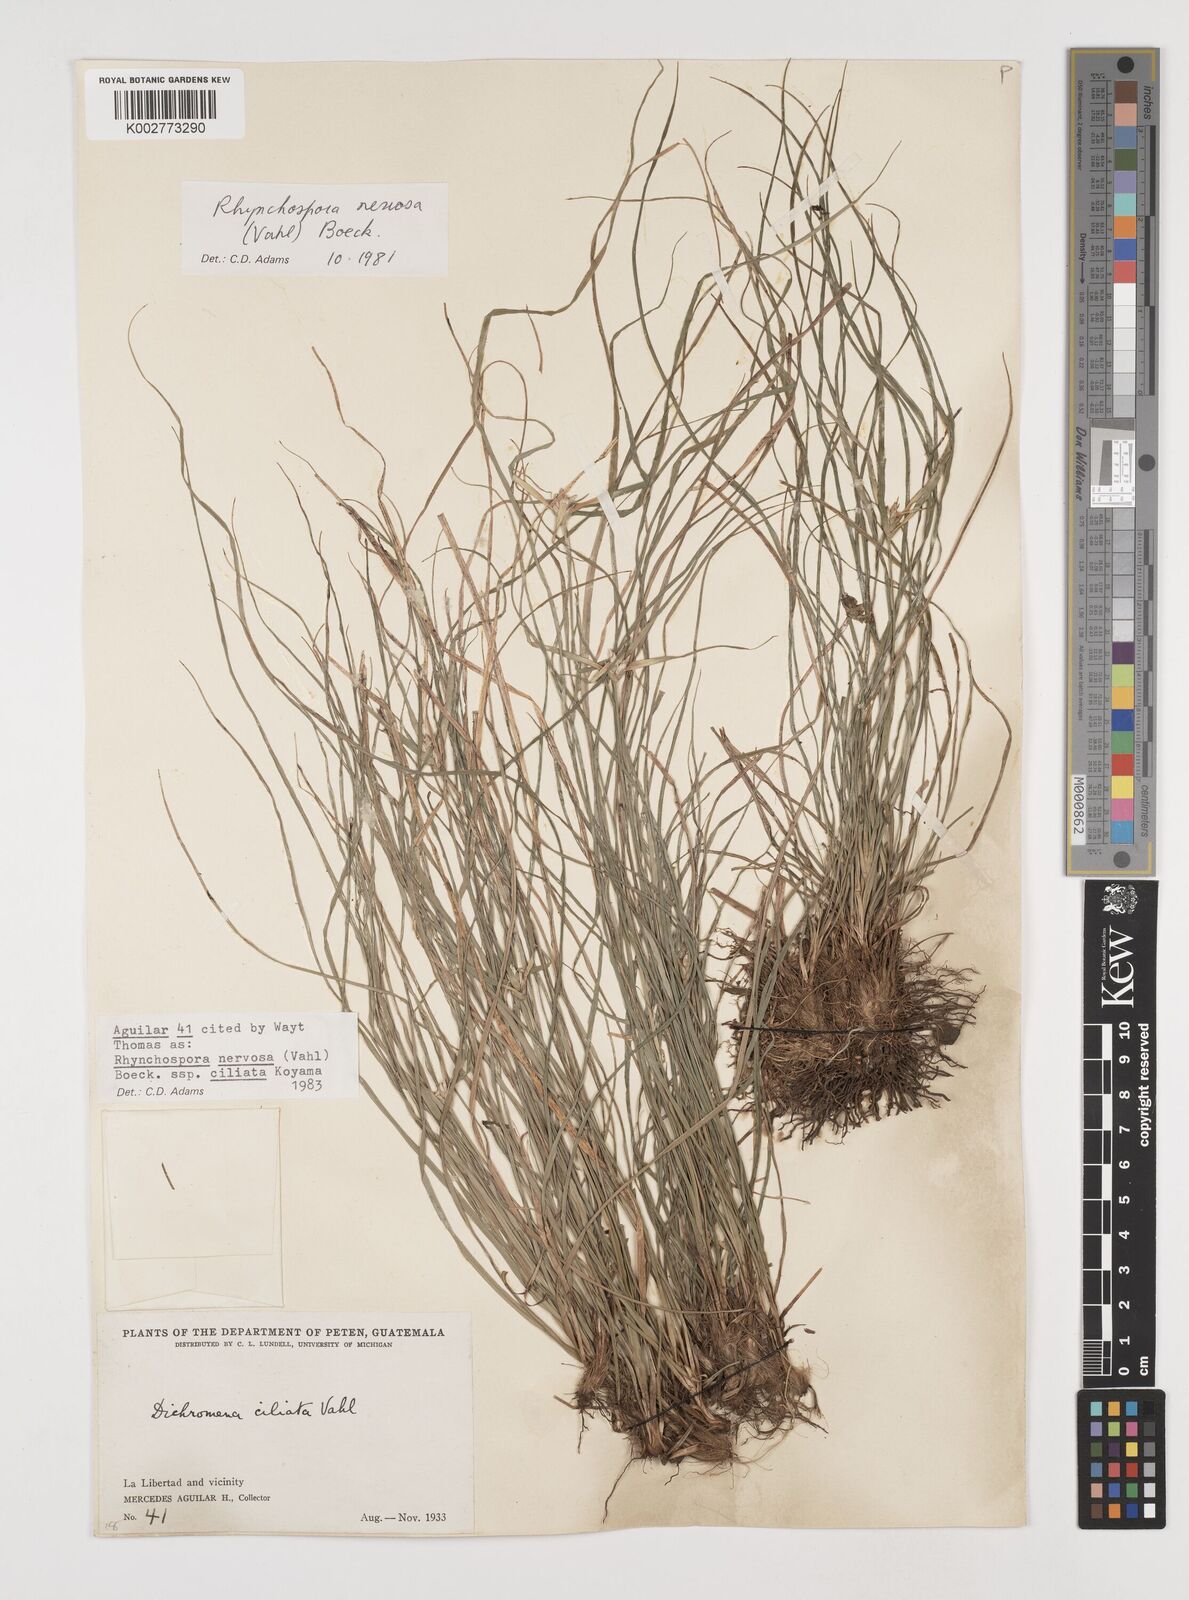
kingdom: Plantae
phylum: Tracheophyta
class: Liliopsida
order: Poales
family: Cyperaceae
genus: Rhynchospora
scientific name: Rhynchospora pura
